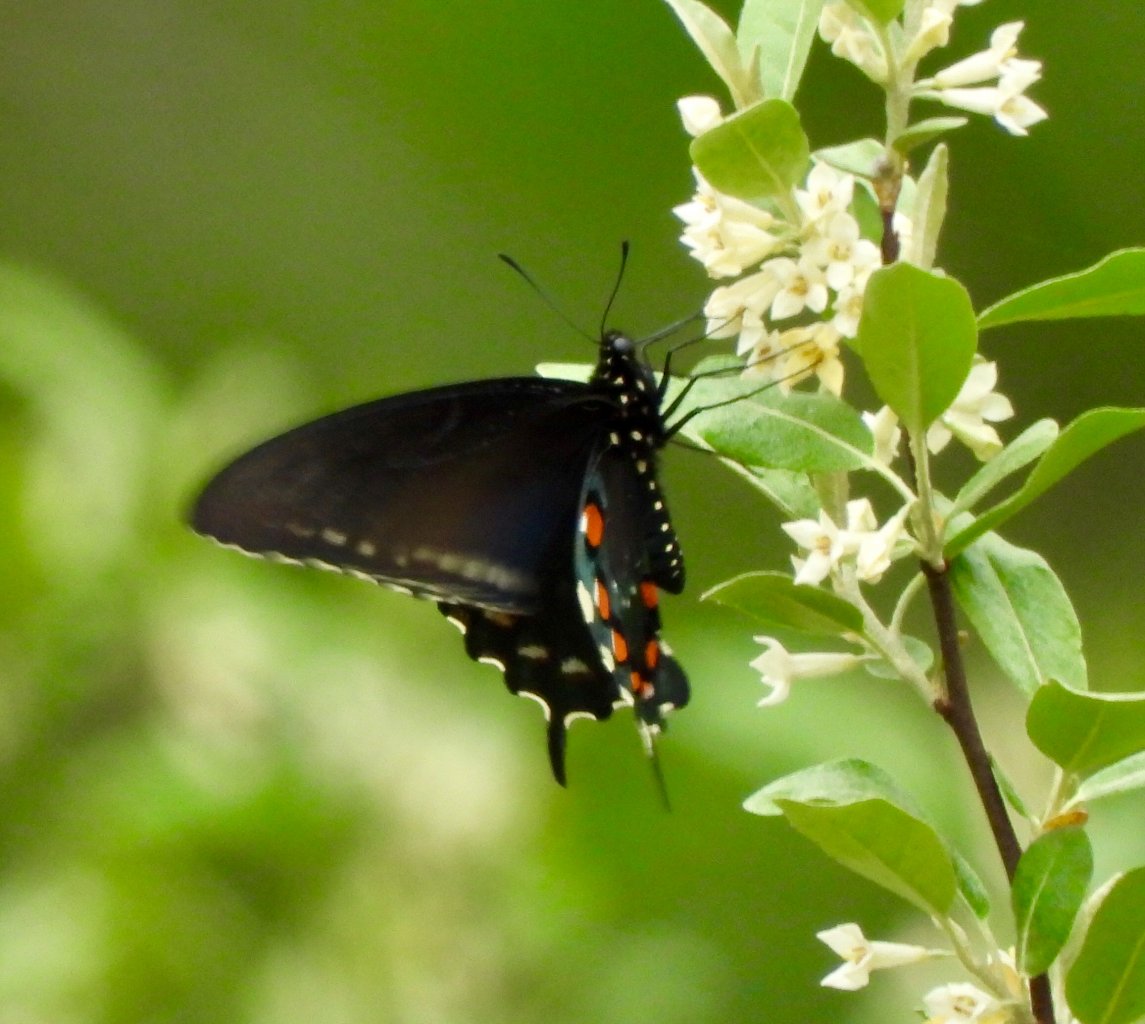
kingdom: Animalia
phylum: Arthropoda
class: Insecta
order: Lepidoptera
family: Papilionidae
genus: Battus
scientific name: Battus philenor
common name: Pipevine Swallowtail
